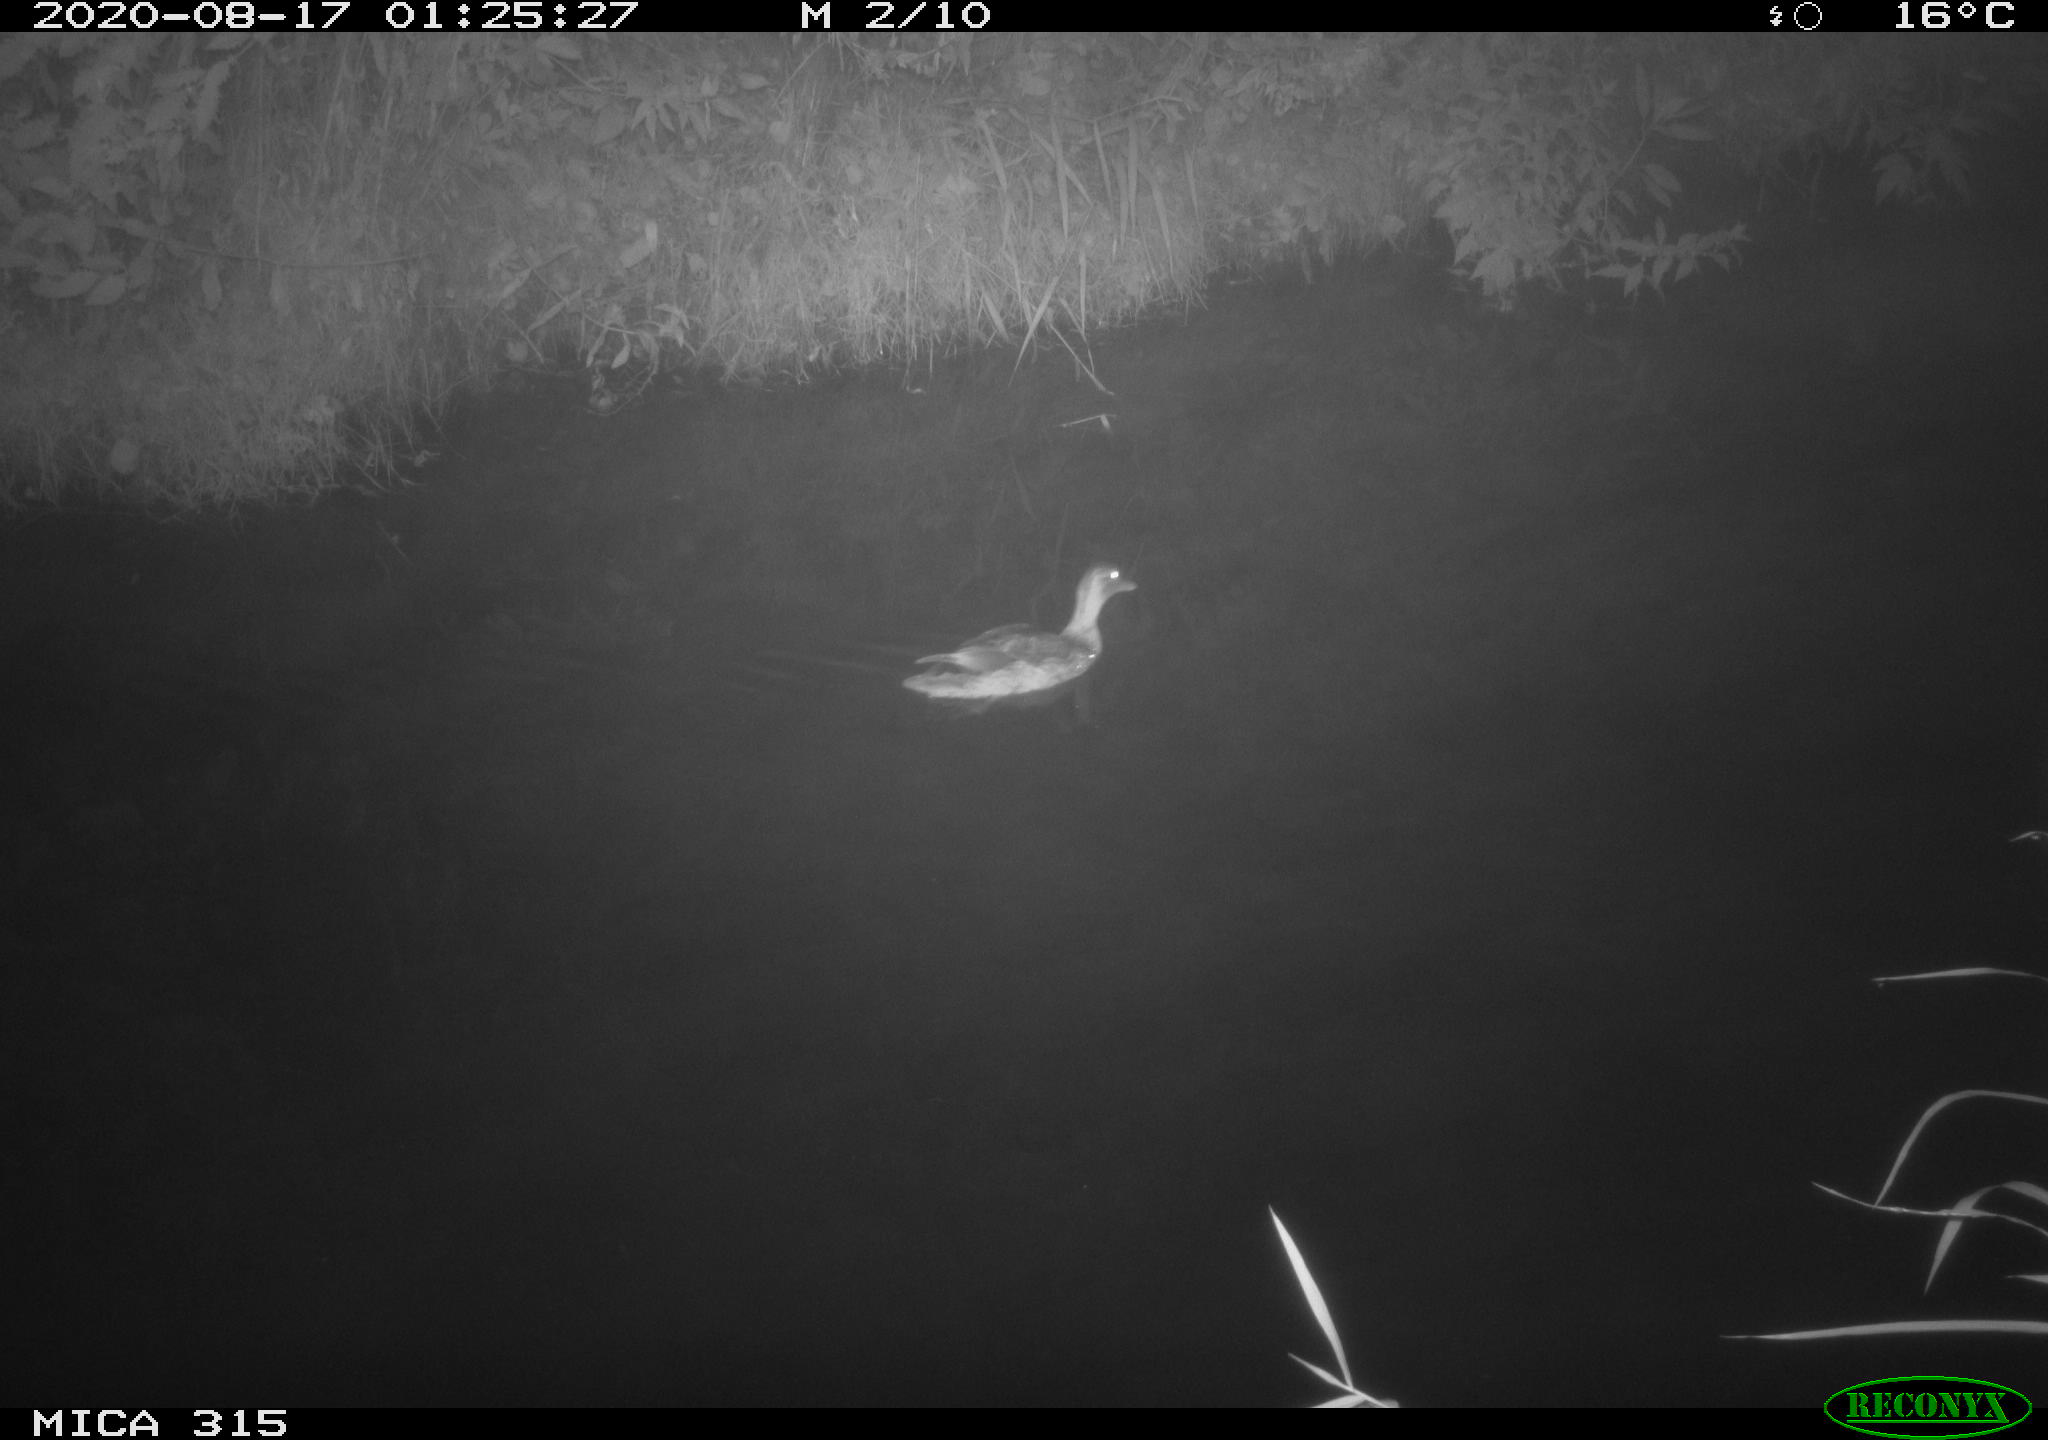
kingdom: Animalia
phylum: Chordata
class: Aves
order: Anseriformes
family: Anatidae
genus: Anas
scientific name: Anas platyrhynchos
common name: Mallard
